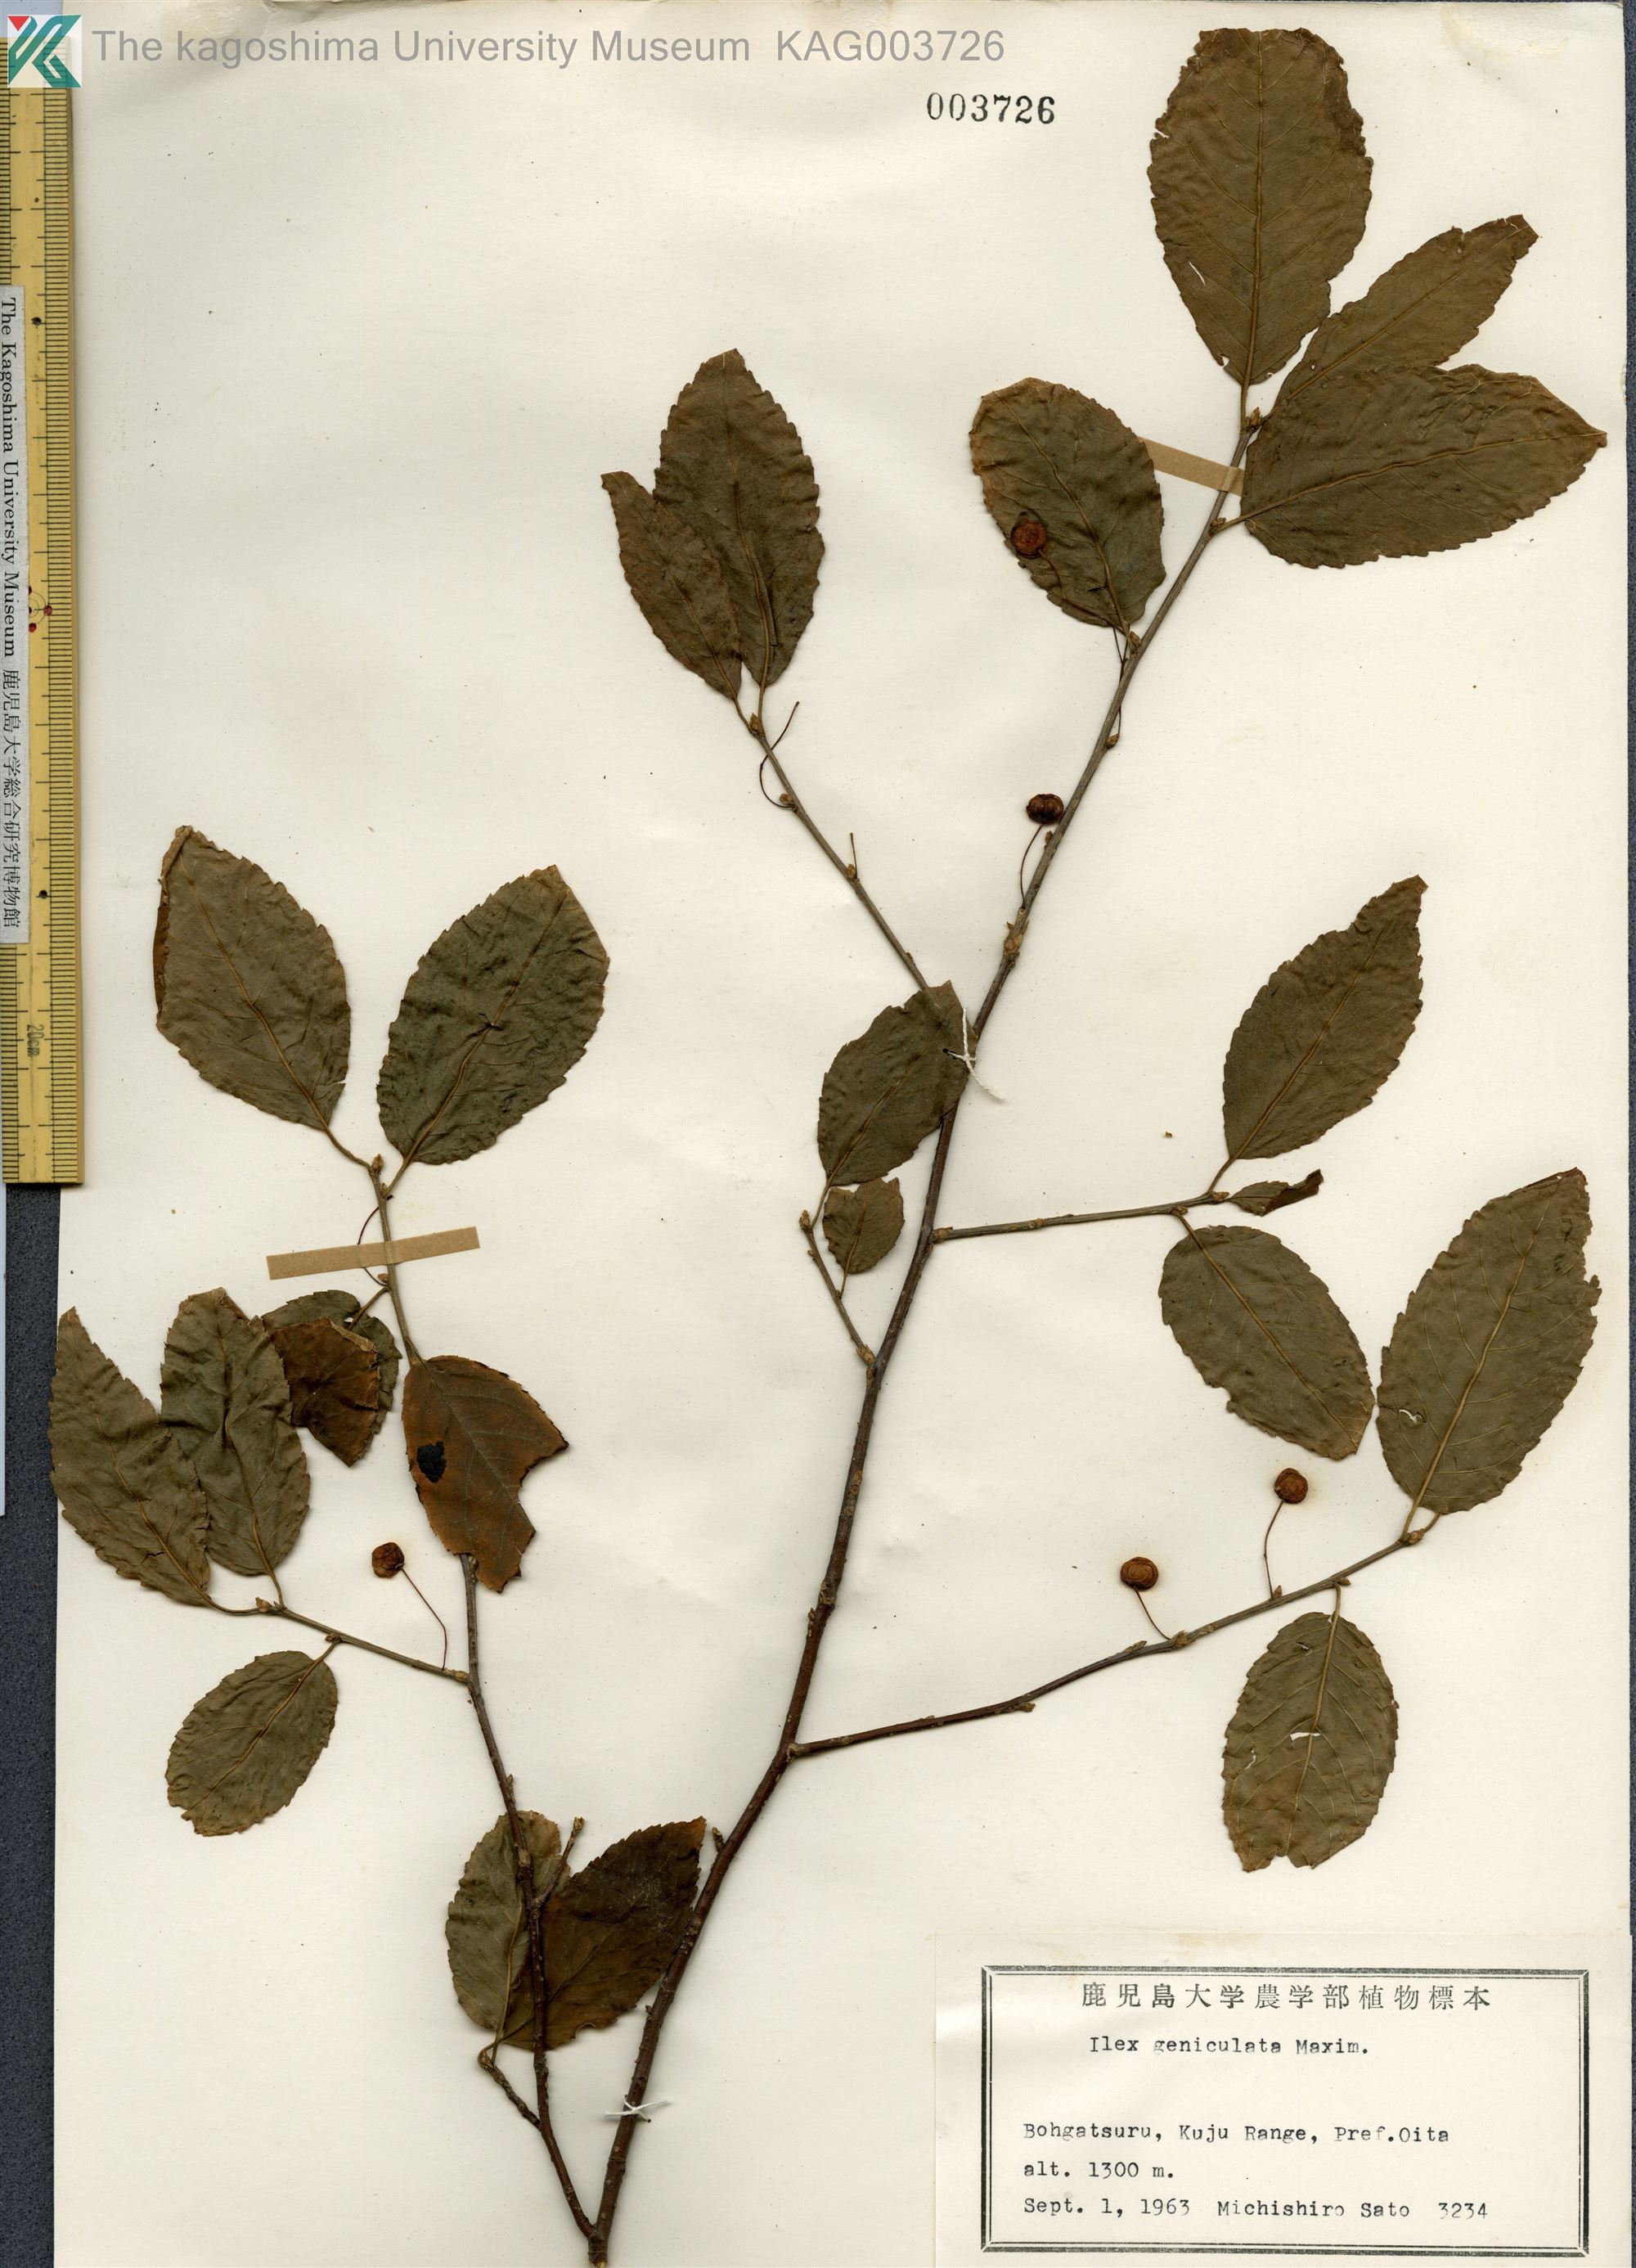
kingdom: Plantae
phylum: Tracheophyta
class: Magnoliopsida
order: Aquifoliales
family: Aquifoliaceae
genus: Ilex
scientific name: Ilex geniculata
